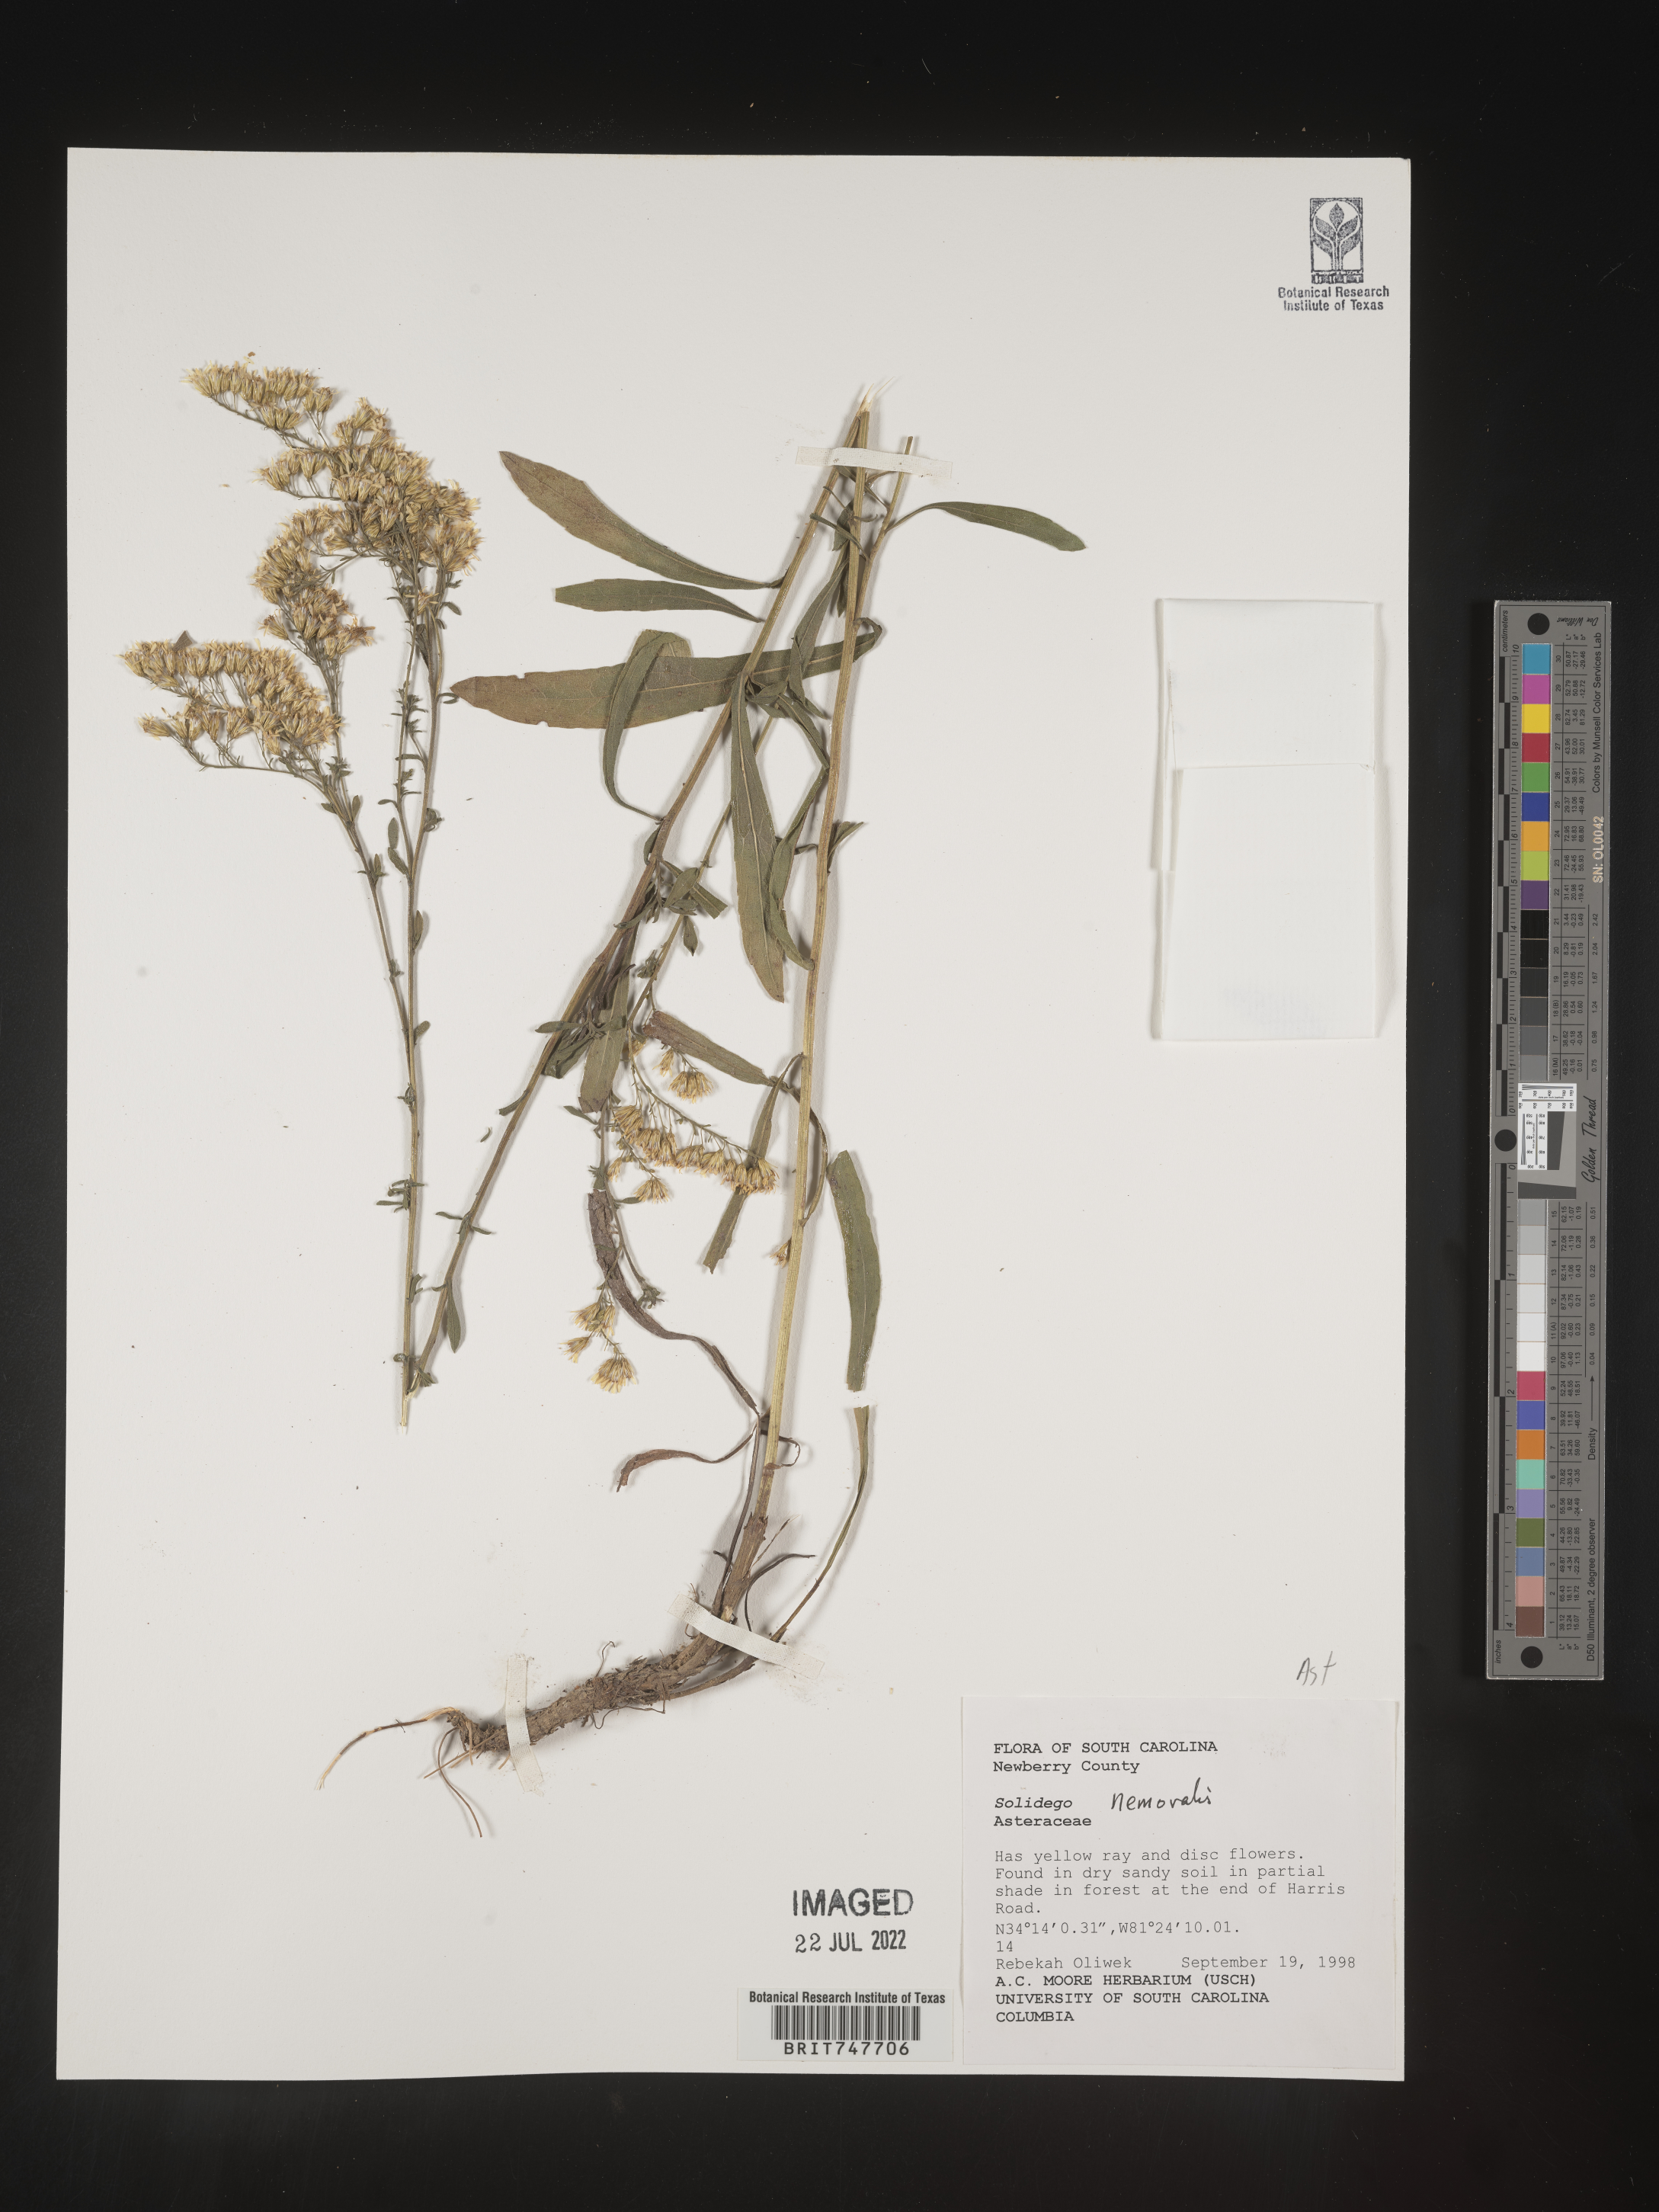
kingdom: Plantae
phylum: Tracheophyta
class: Magnoliopsida
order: Asterales
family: Asteraceae
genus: Solidago
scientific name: Solidago nemoralis
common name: Grey goldenrod
